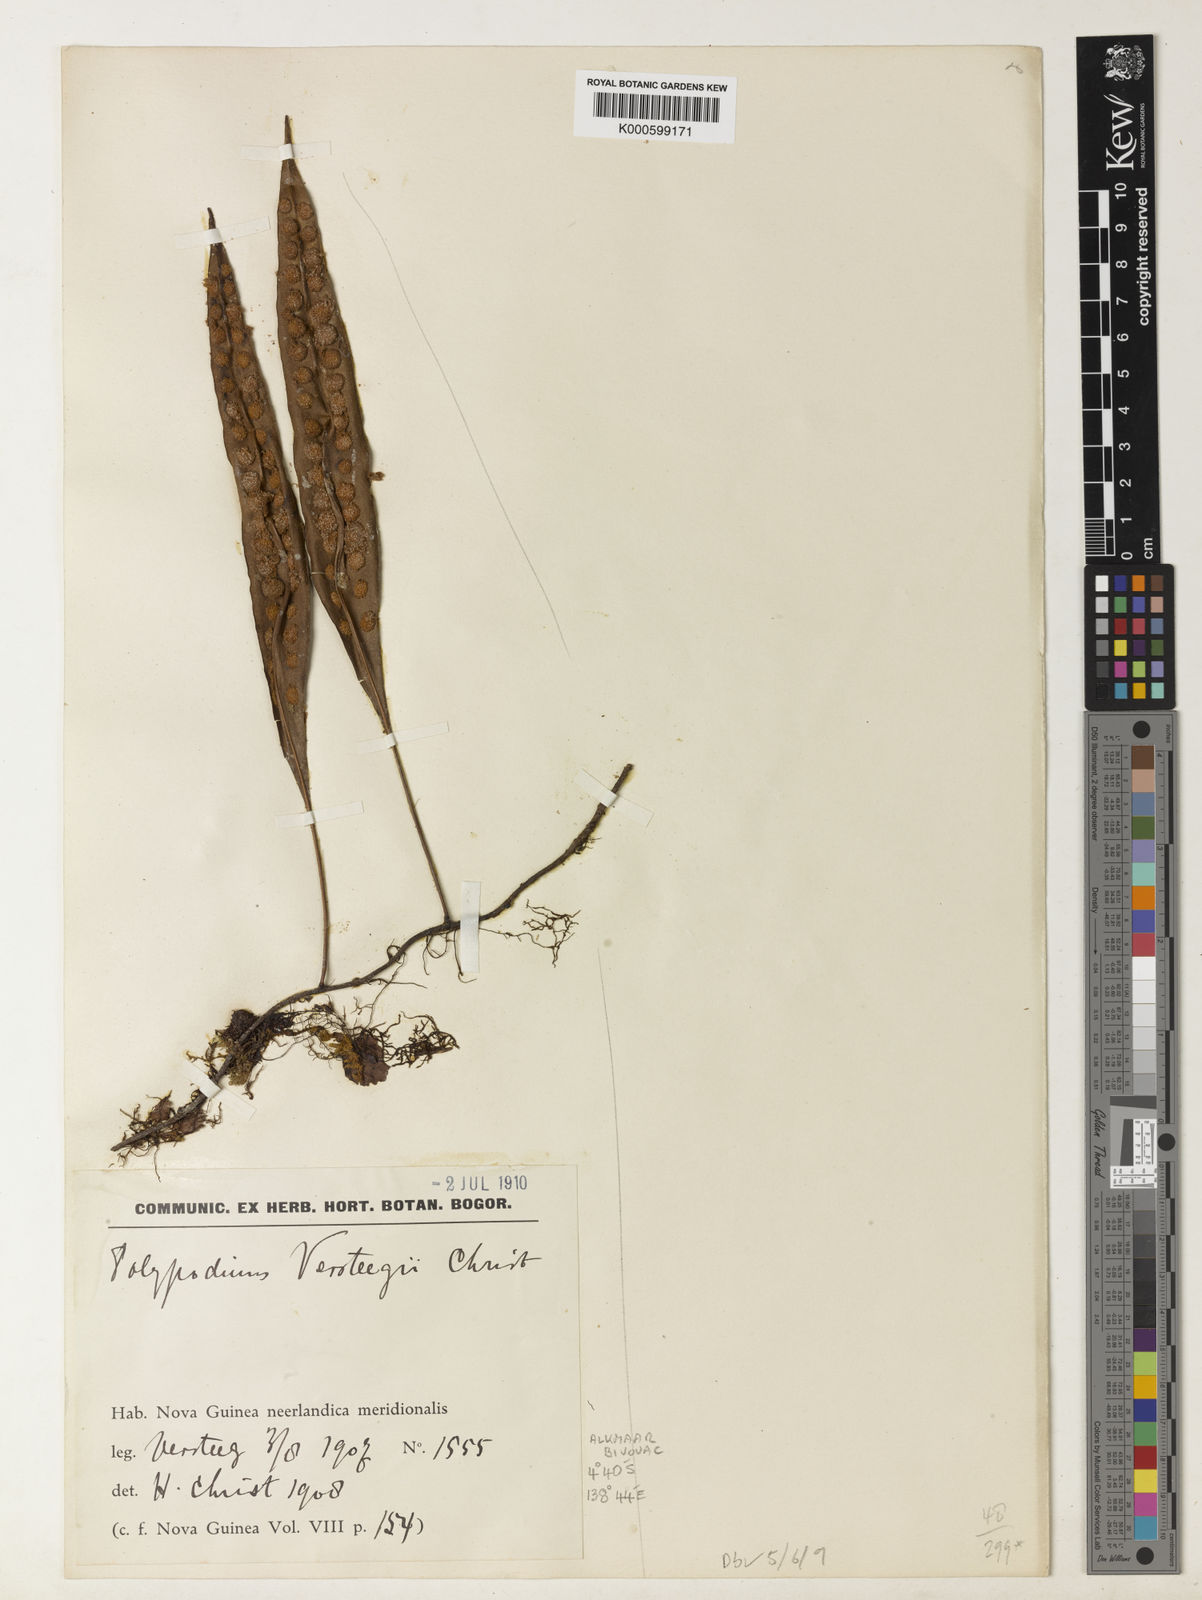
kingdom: Plantae
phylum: Tracheophyta
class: Polypodiopsida
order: Polypodiales
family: Polypodiaceae
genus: Microsorum
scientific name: Microsorum papuanum
